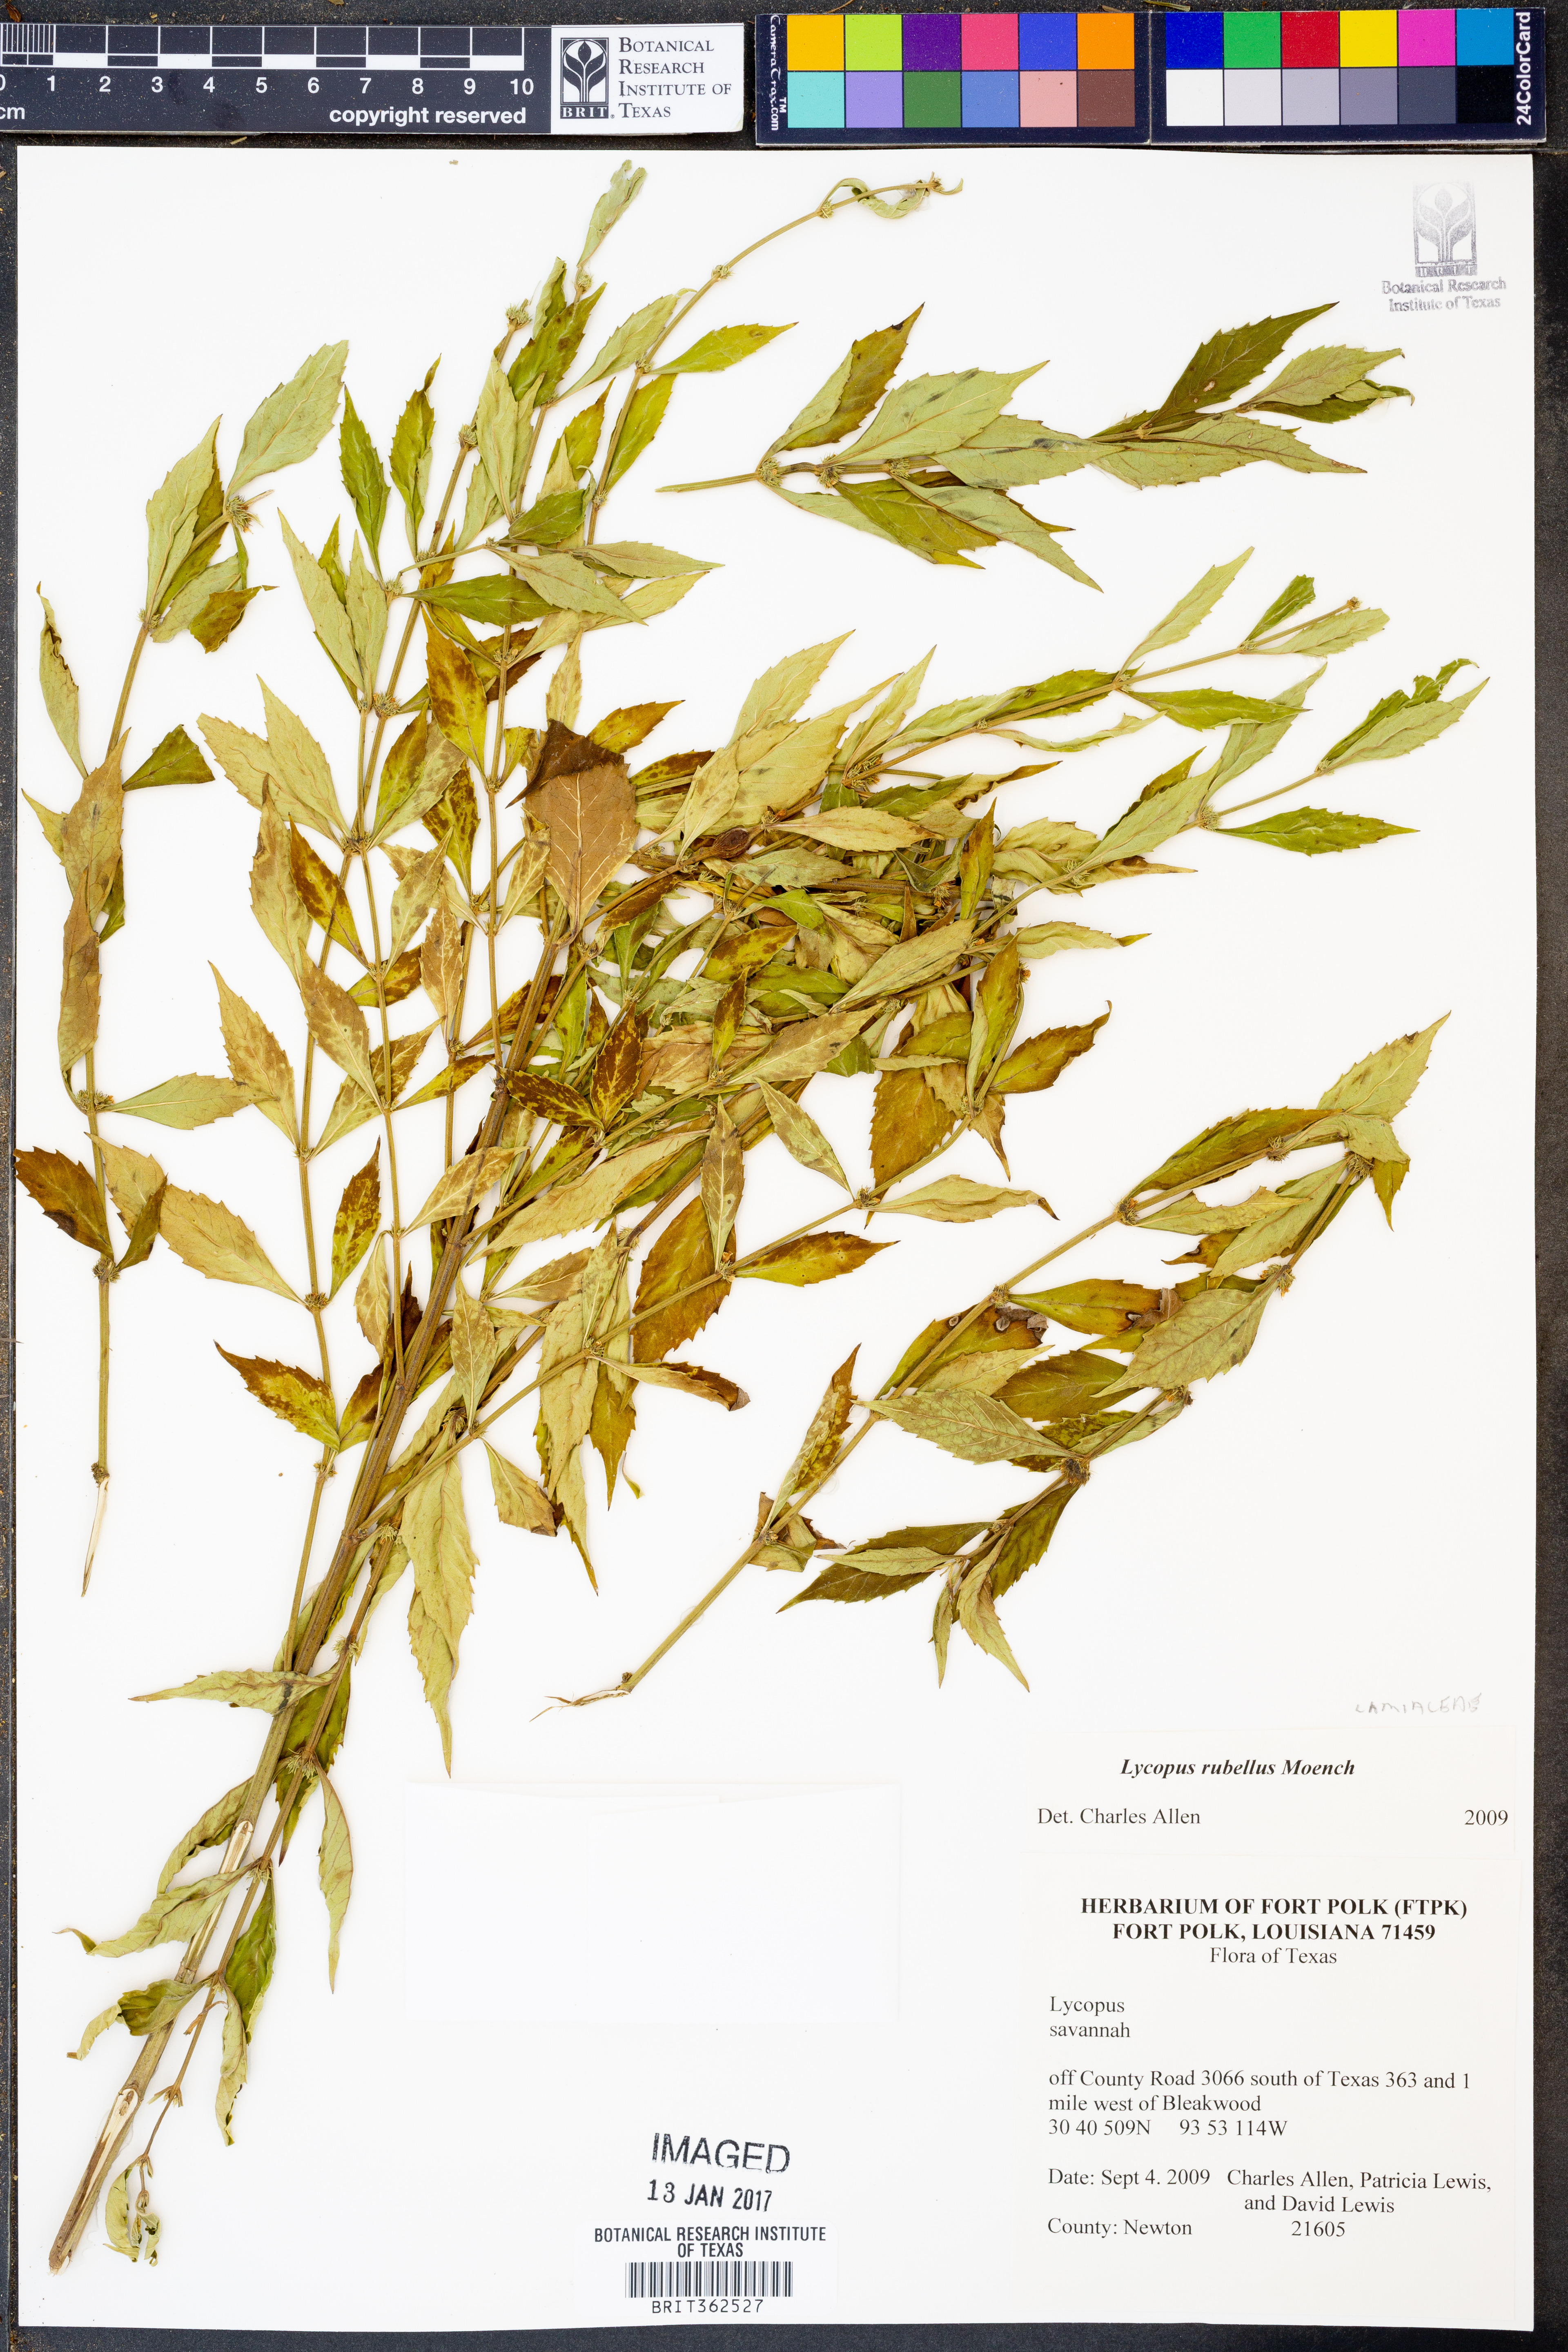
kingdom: Plantae
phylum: Tracheophyta
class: Magnoliopsida
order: Lamiales
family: Lamiaceae
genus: Lycopus
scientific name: Lycopus rubellus
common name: Stalked bugleweed
